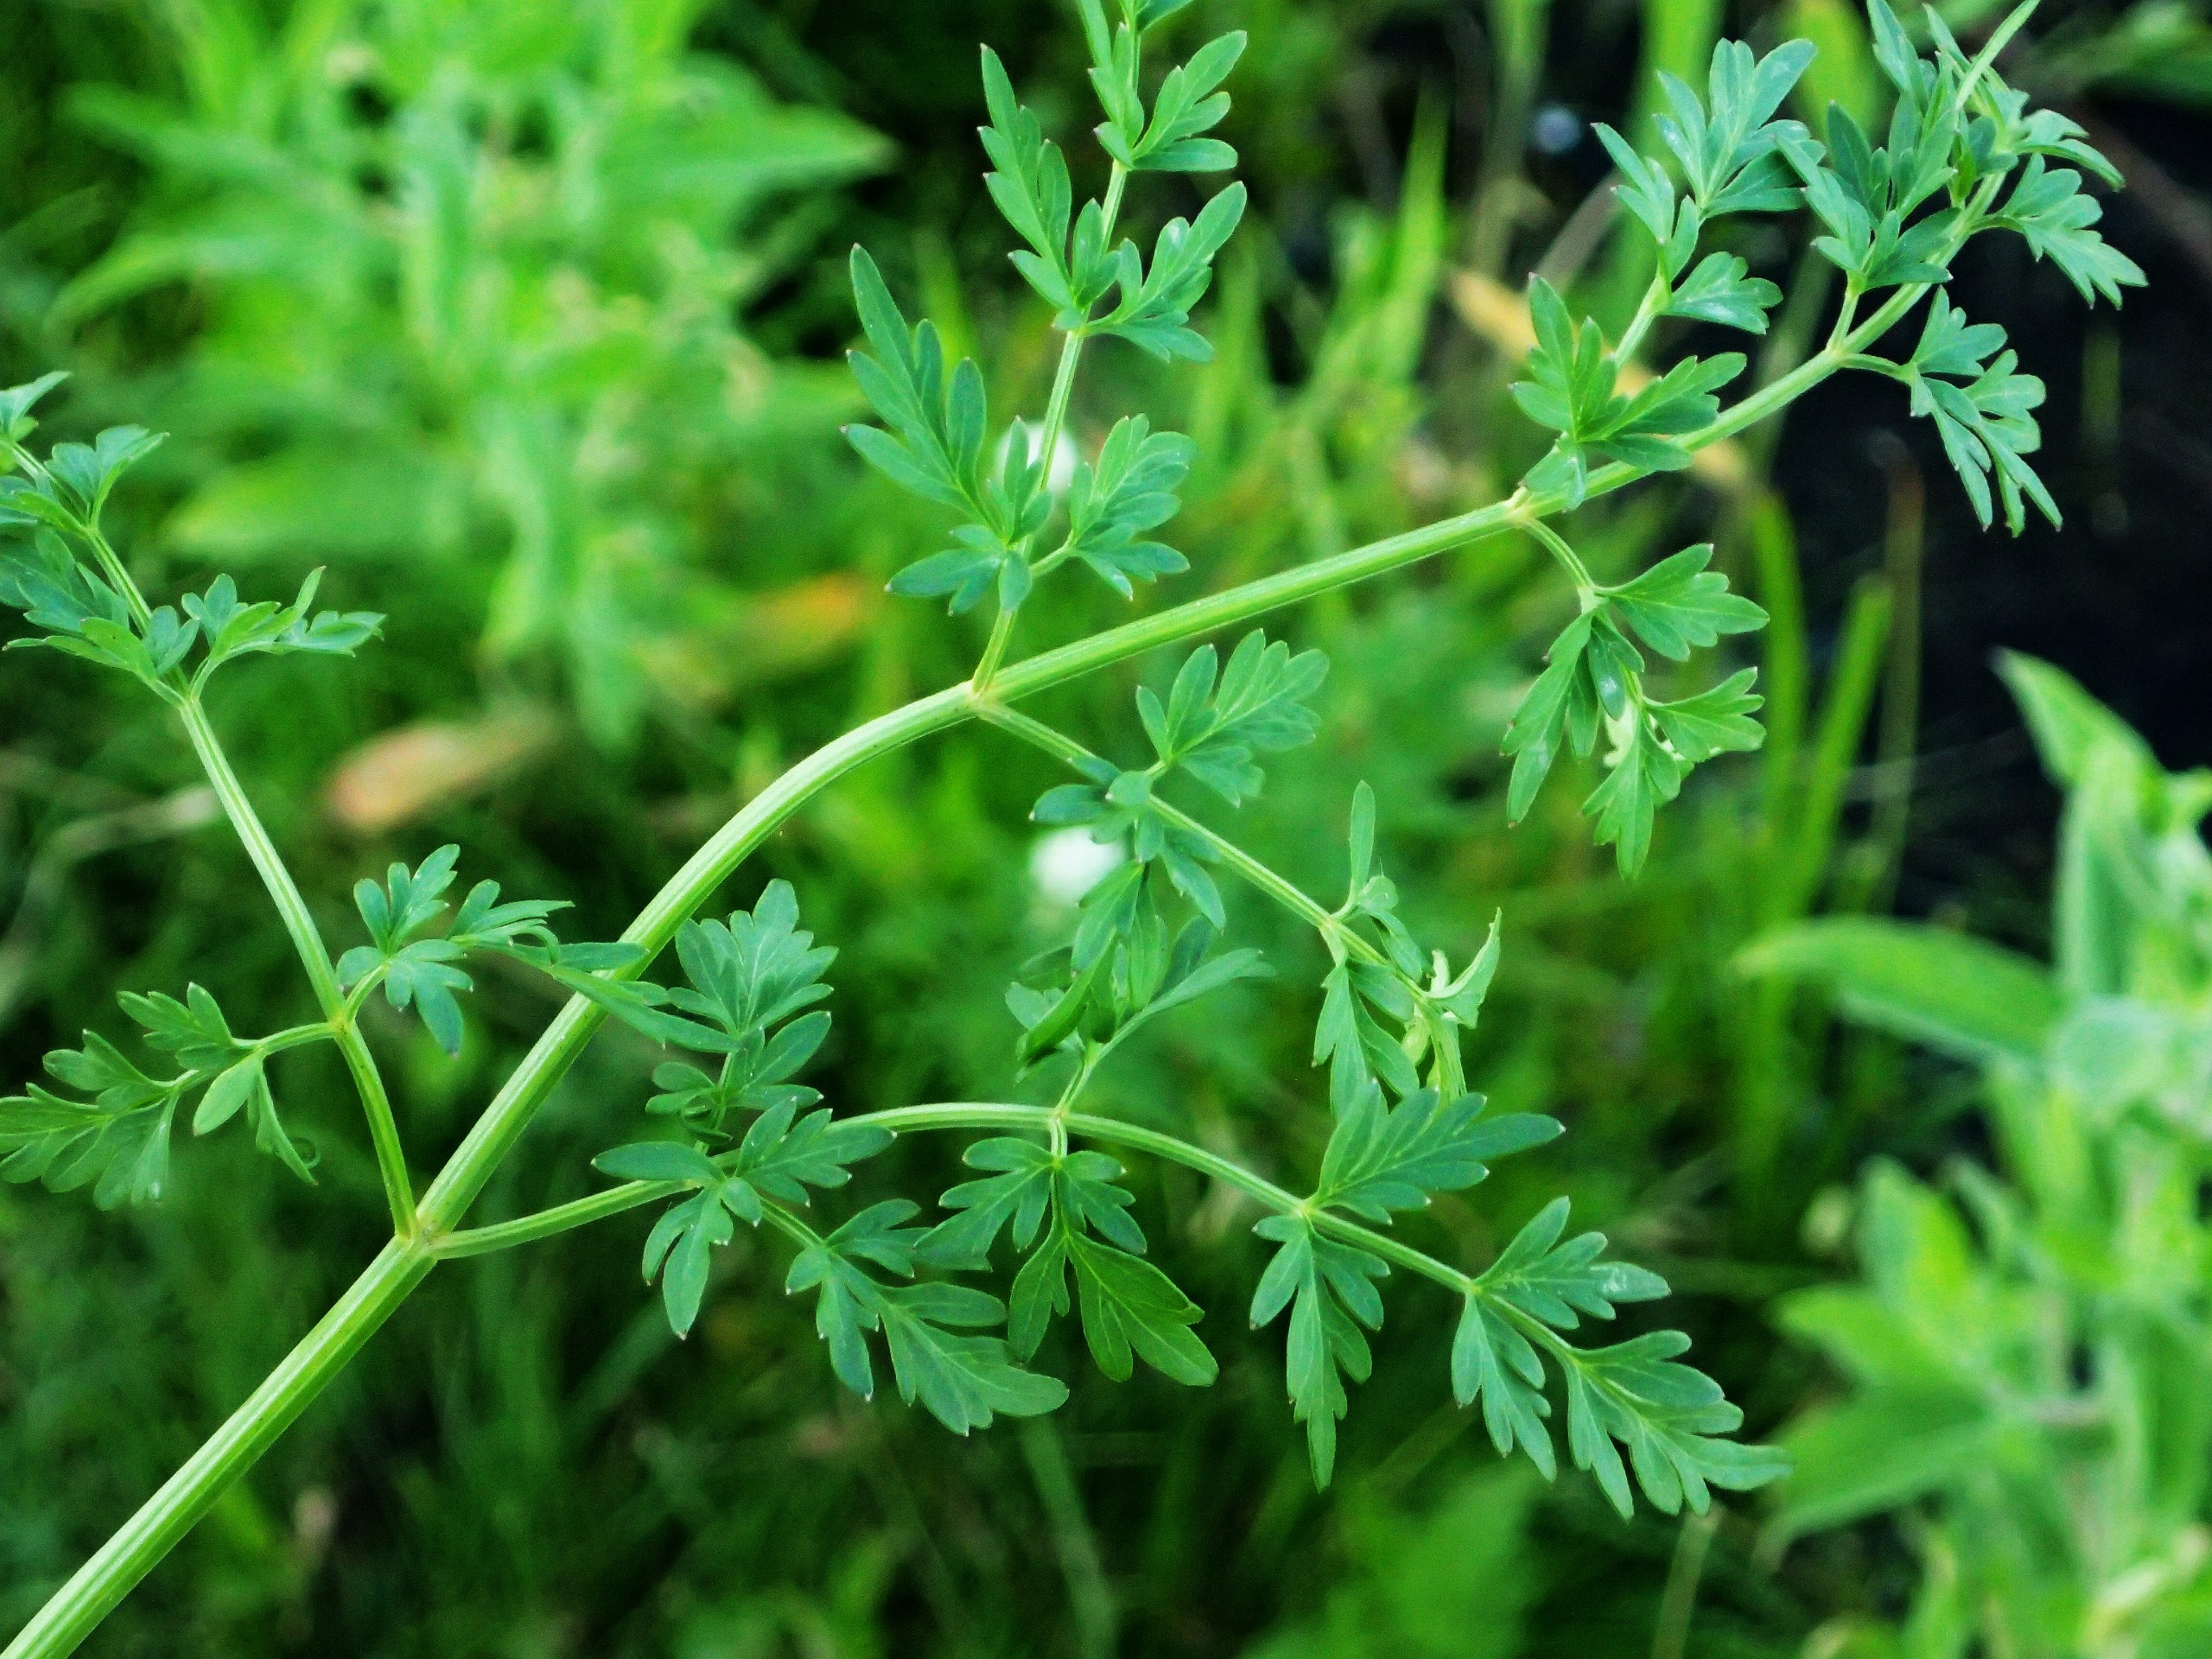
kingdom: Plantae
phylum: Tracheophyta
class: Magnoliopsida
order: Apiales
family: Apiaceae
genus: Thysselinum
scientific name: Thysselinum palustre
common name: Kær-svovlrod
